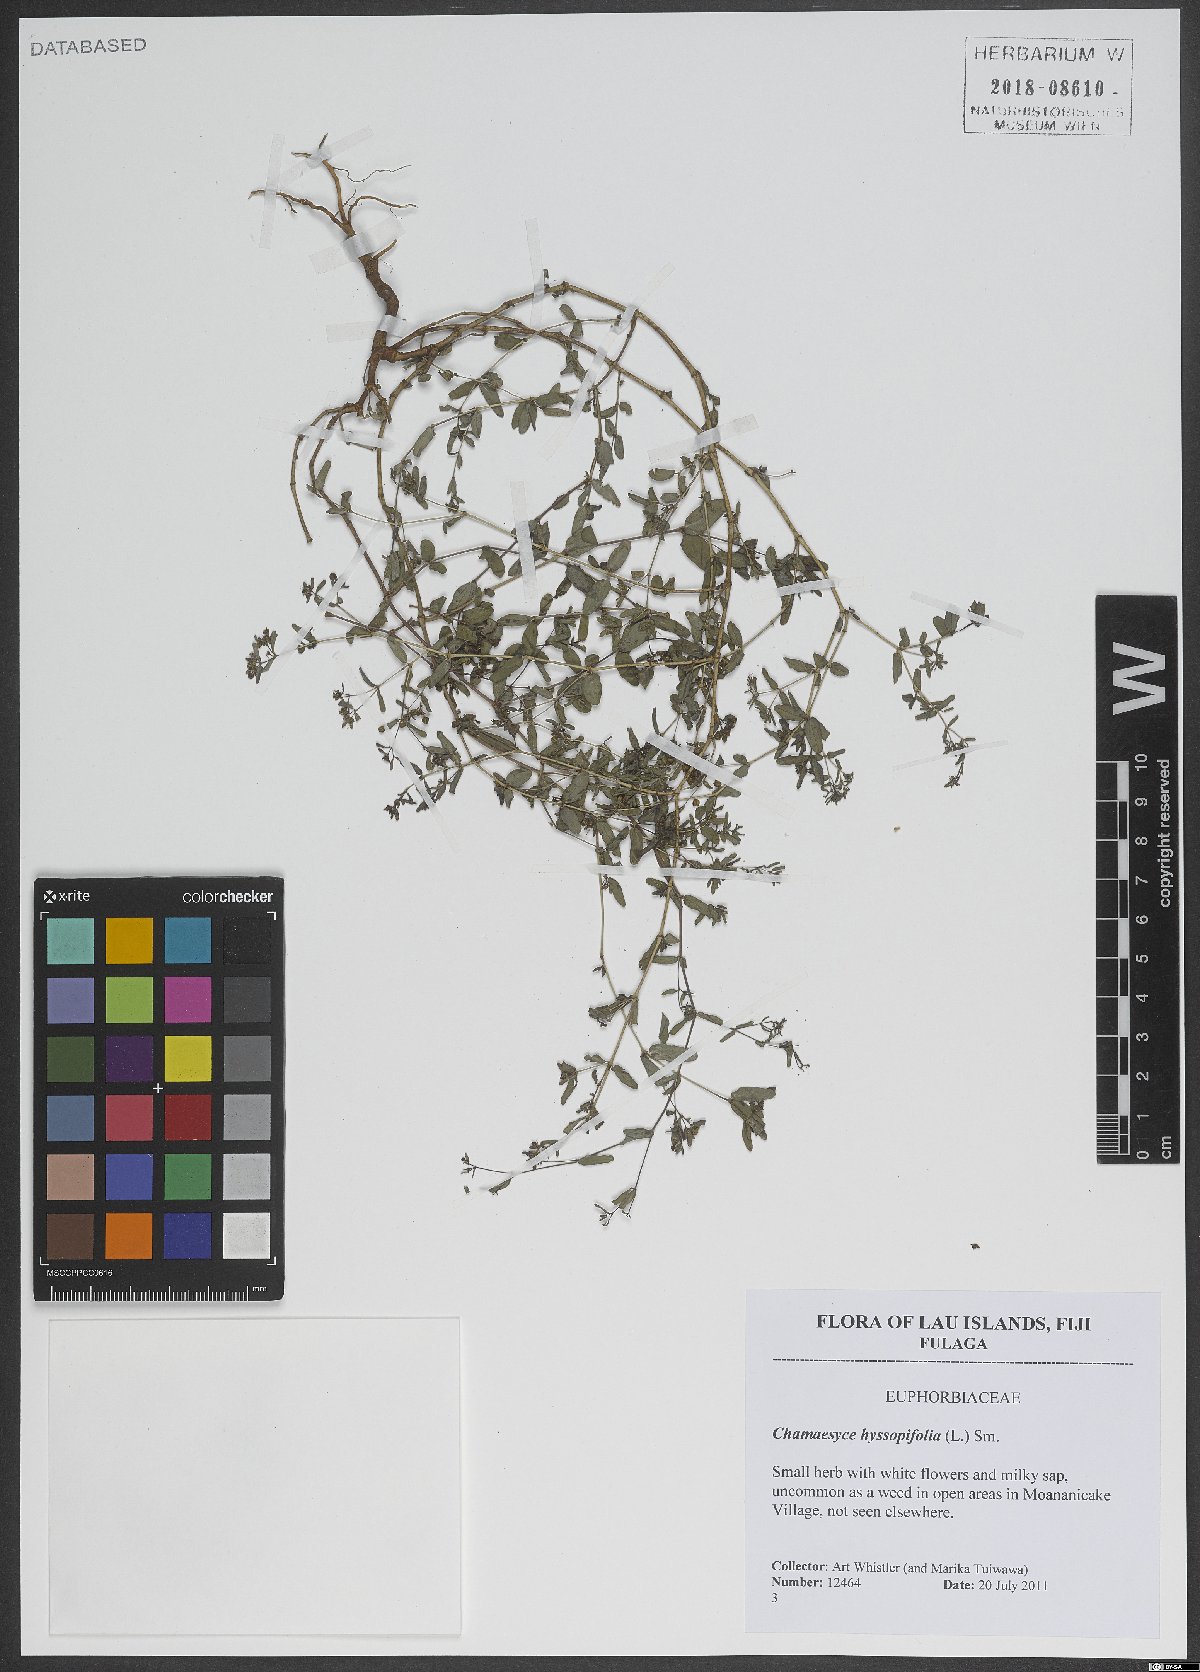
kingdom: Plantae
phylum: Tracheophyta
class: Magnoliopsida
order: Malpighiales
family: Euphorbiaceae
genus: Euphorbia
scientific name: Euphorbia hyssopifolia
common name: Hyssopleaf sandmat
